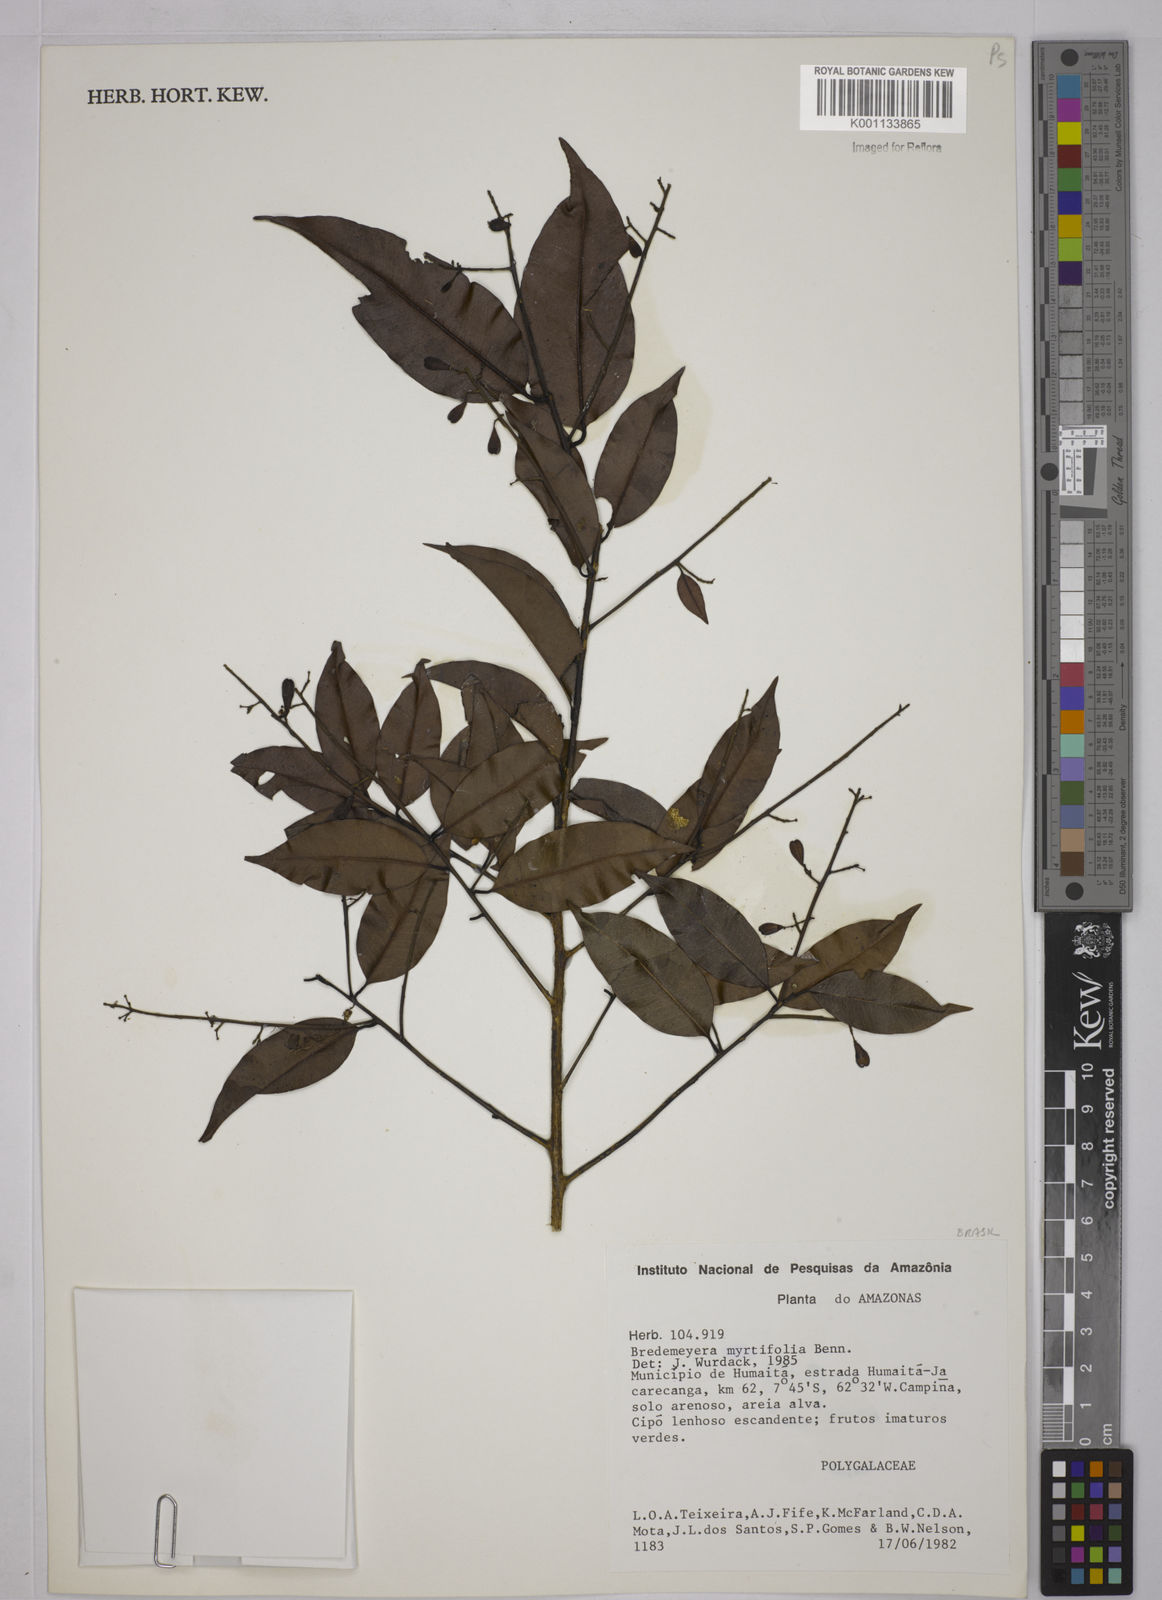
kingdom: Plantae
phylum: Tracheophyta
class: Magnoliopsida
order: Fabales
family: Polygalaceae
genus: Bredemeyera
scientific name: Bredemeyera
